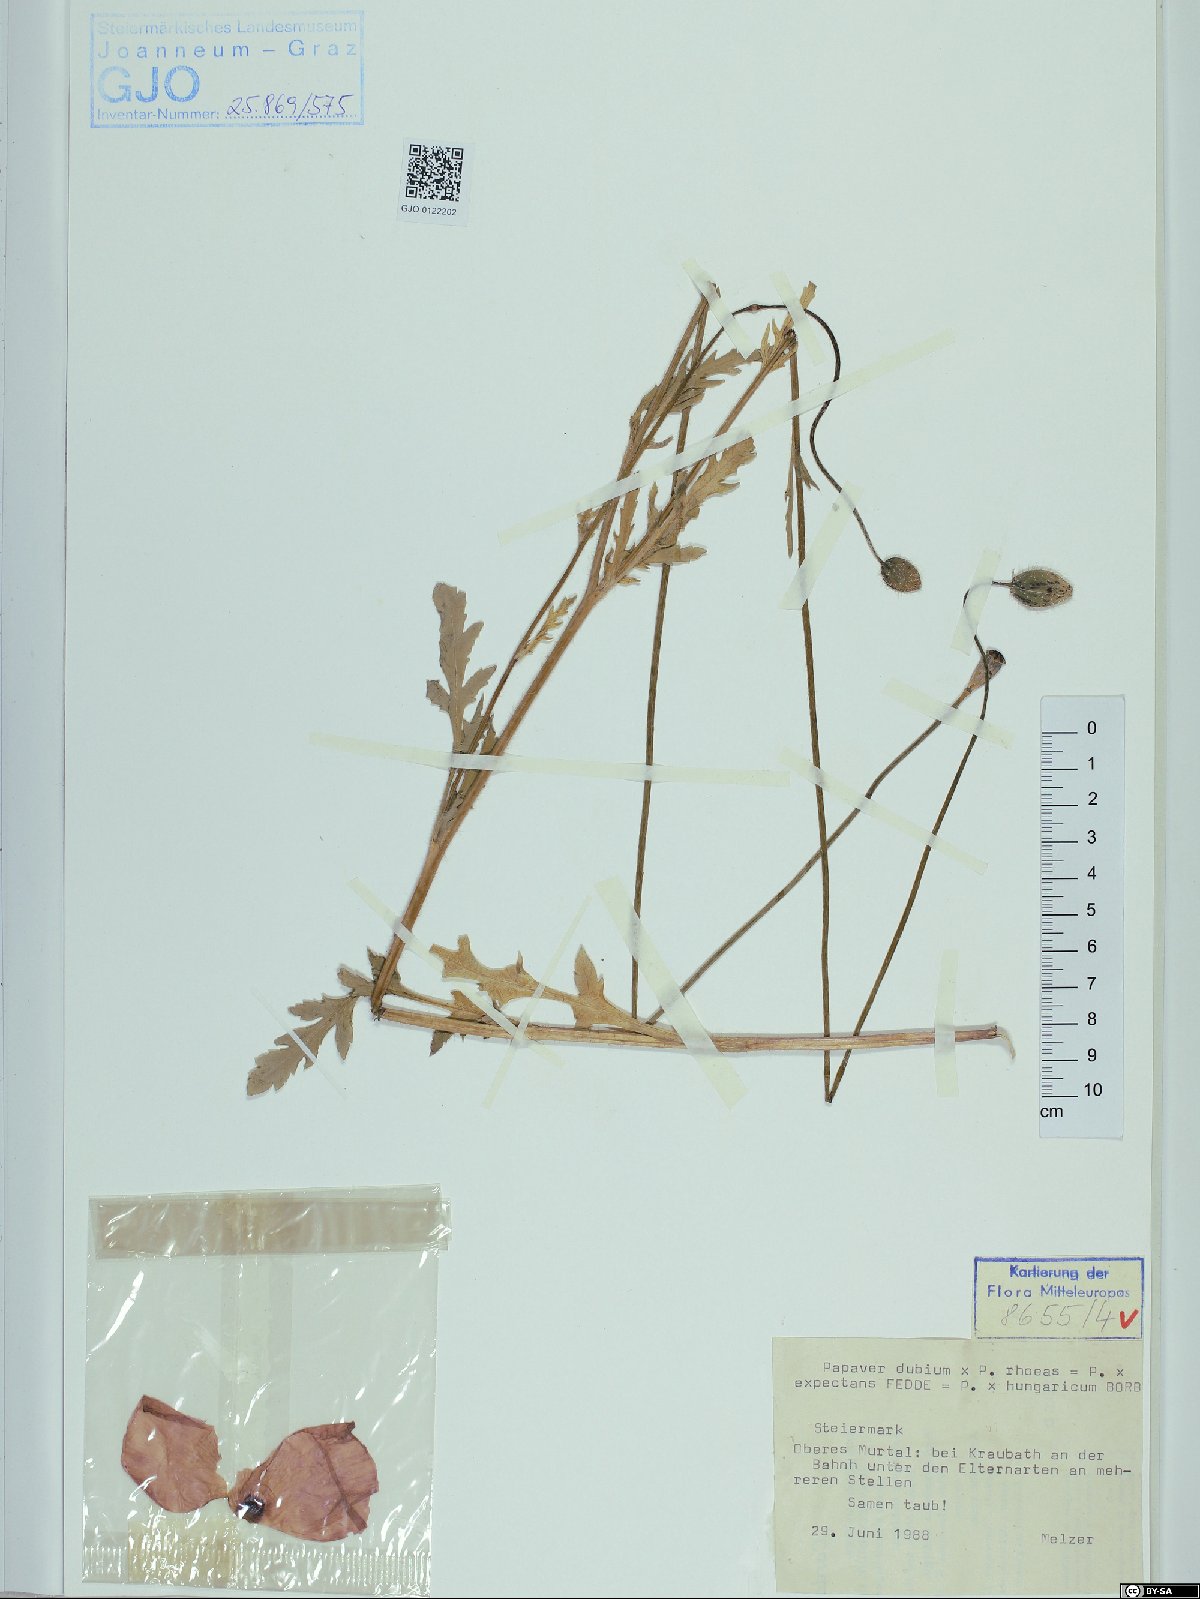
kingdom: Plantae
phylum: Tracheophyta
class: Magnoliopsida
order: Ranunculales
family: Papaveraceae
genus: Papaver
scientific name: Papaver strigosum
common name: Poppy
